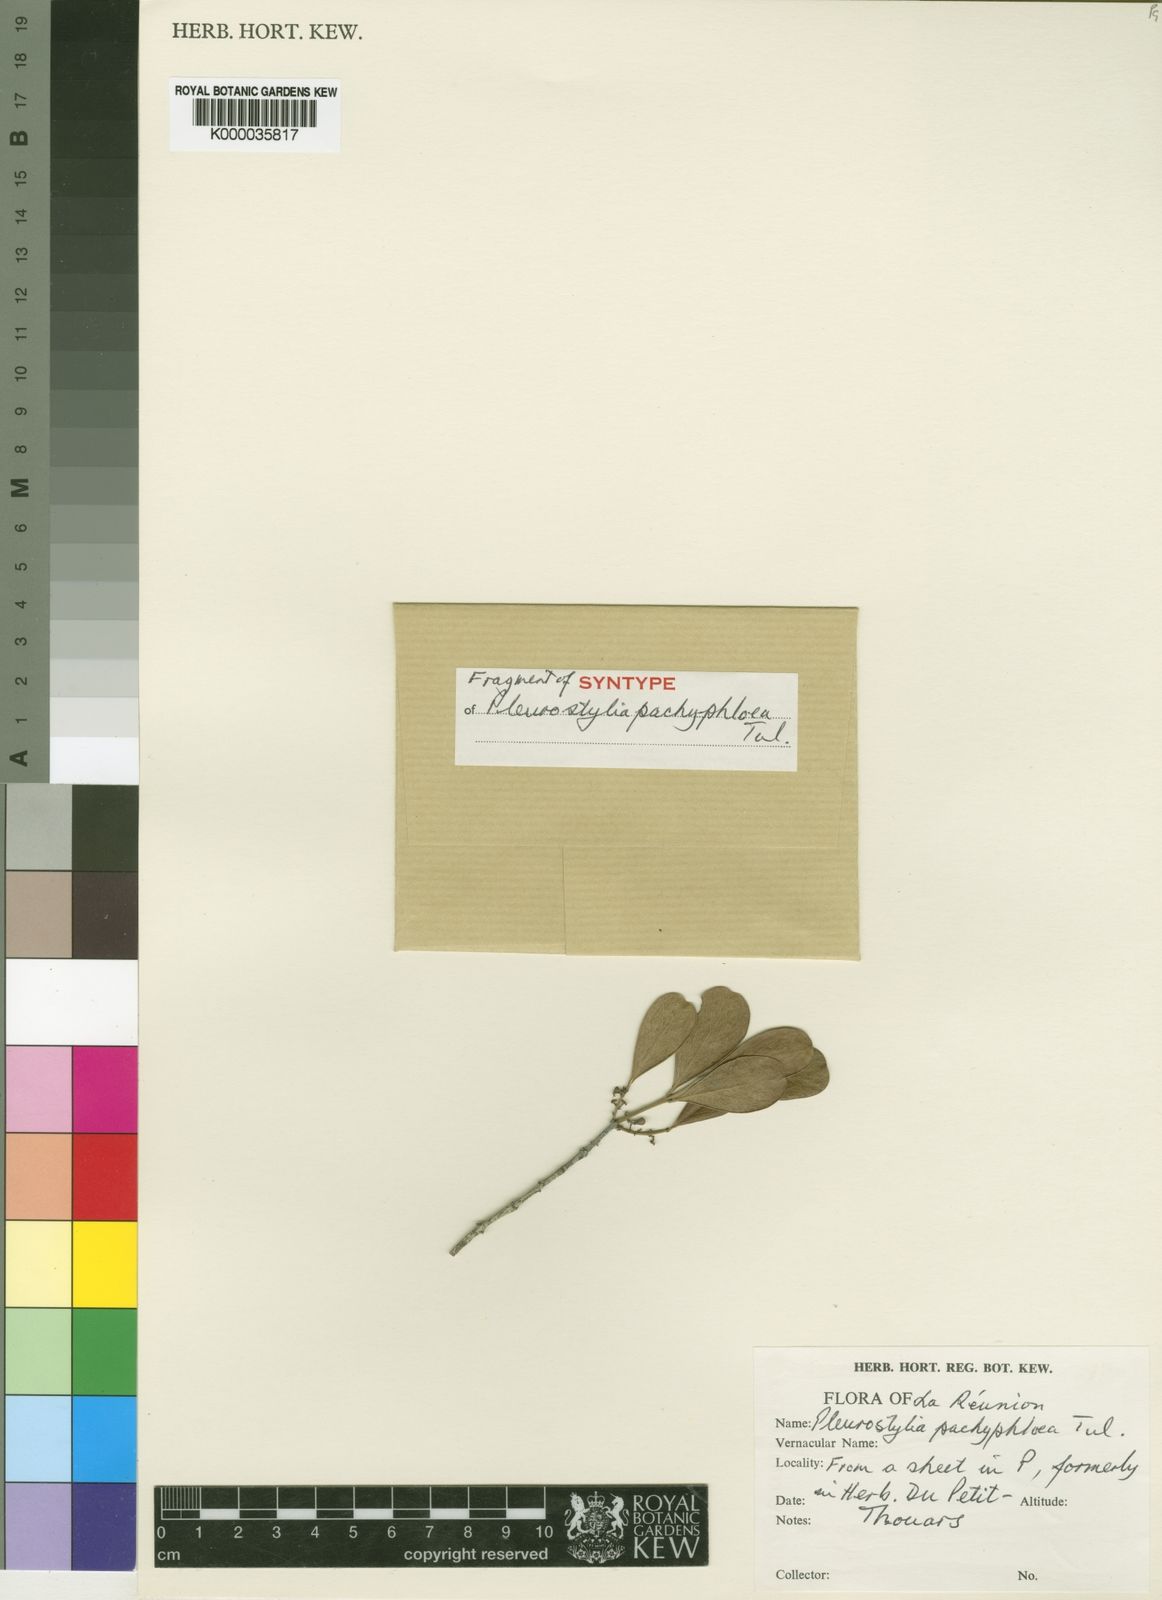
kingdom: Plantae
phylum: Tracheophyta
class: Magnoliopsida
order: Celastrales
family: Celastraceae
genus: Pleurostylia
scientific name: Pleurostylia pachyphloea
